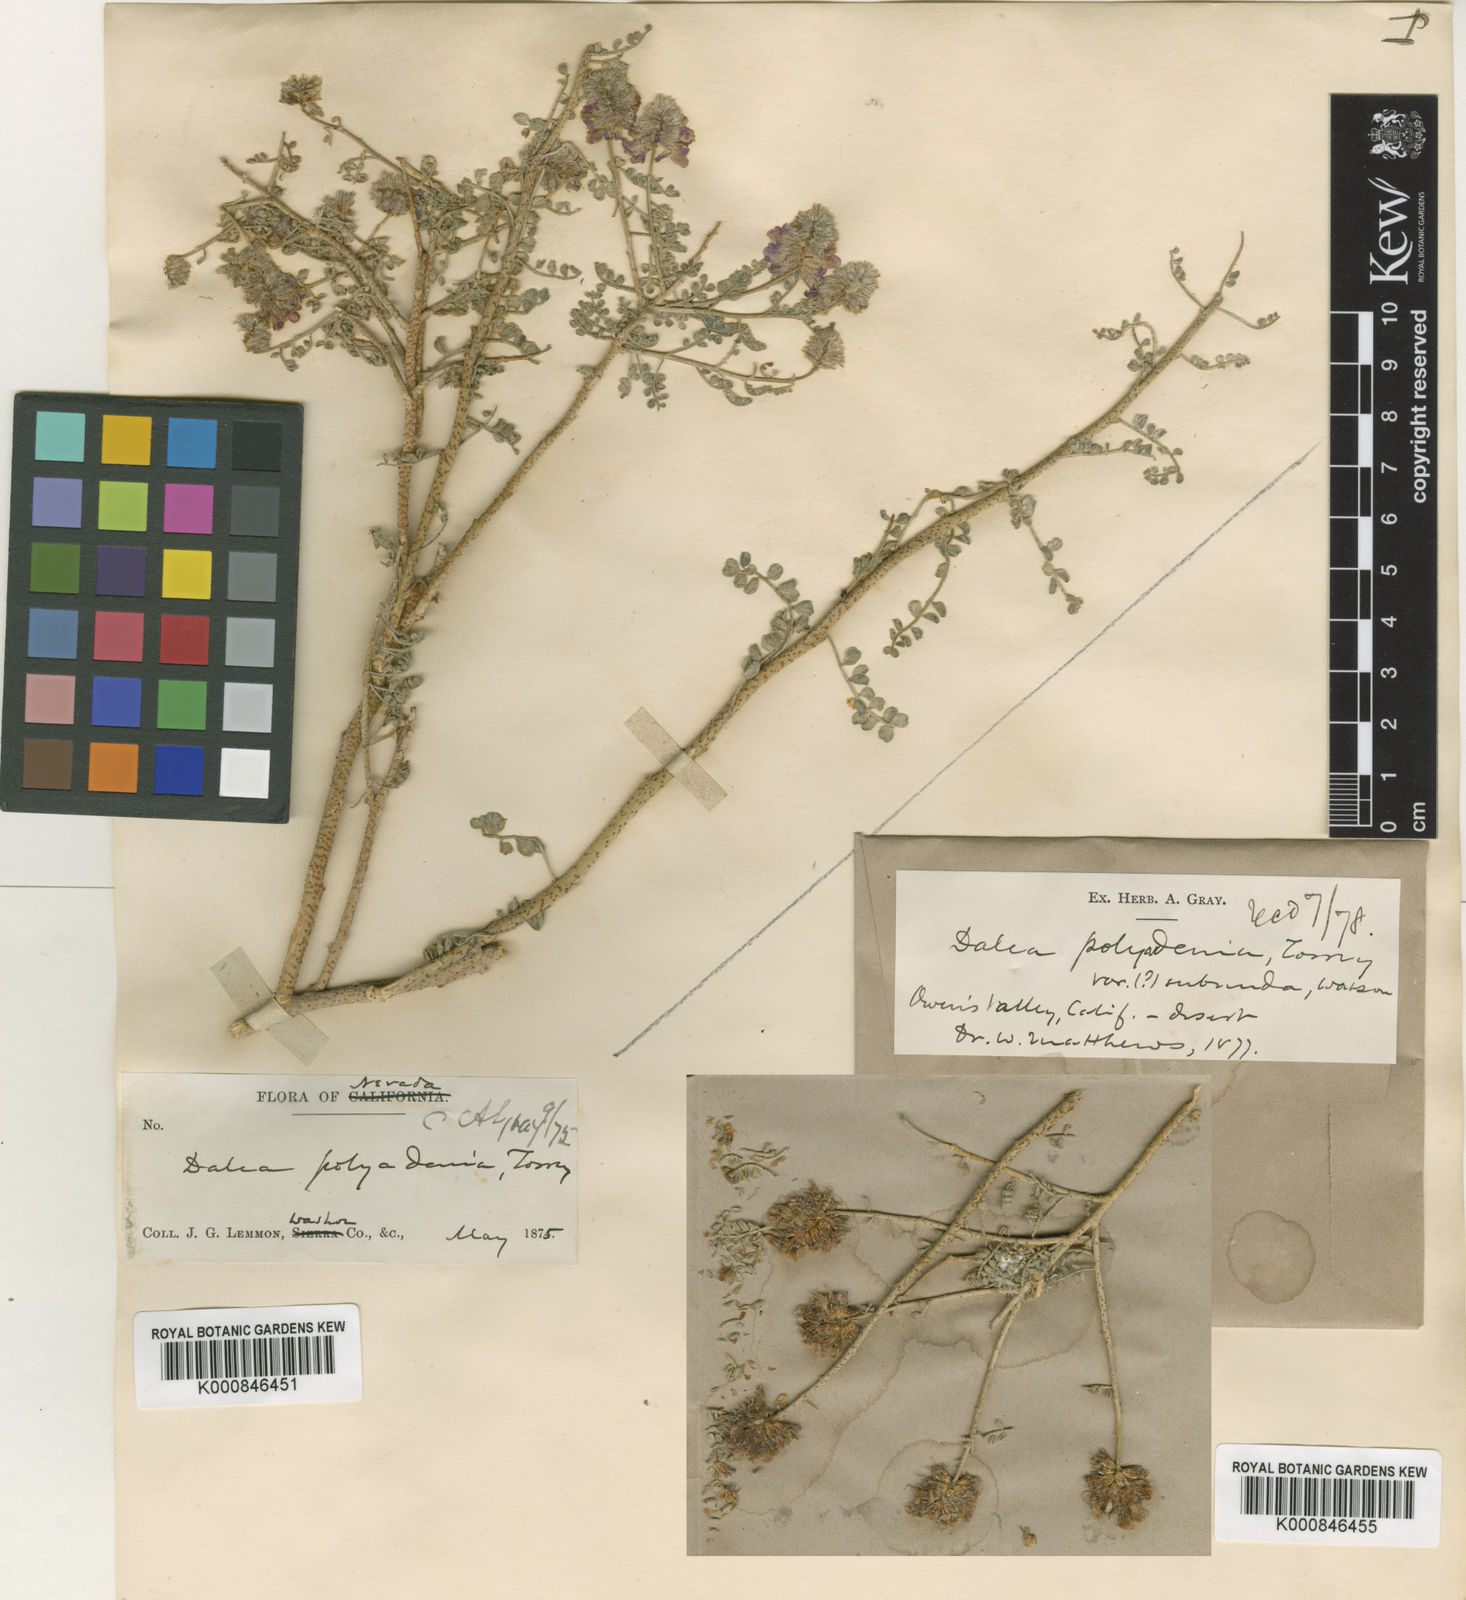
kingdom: Plantae
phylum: Tracheophyta
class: Magnoliopsida
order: Fabales
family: Fabaceae
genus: Psorothamnus
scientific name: Psorothamnus polydenius
